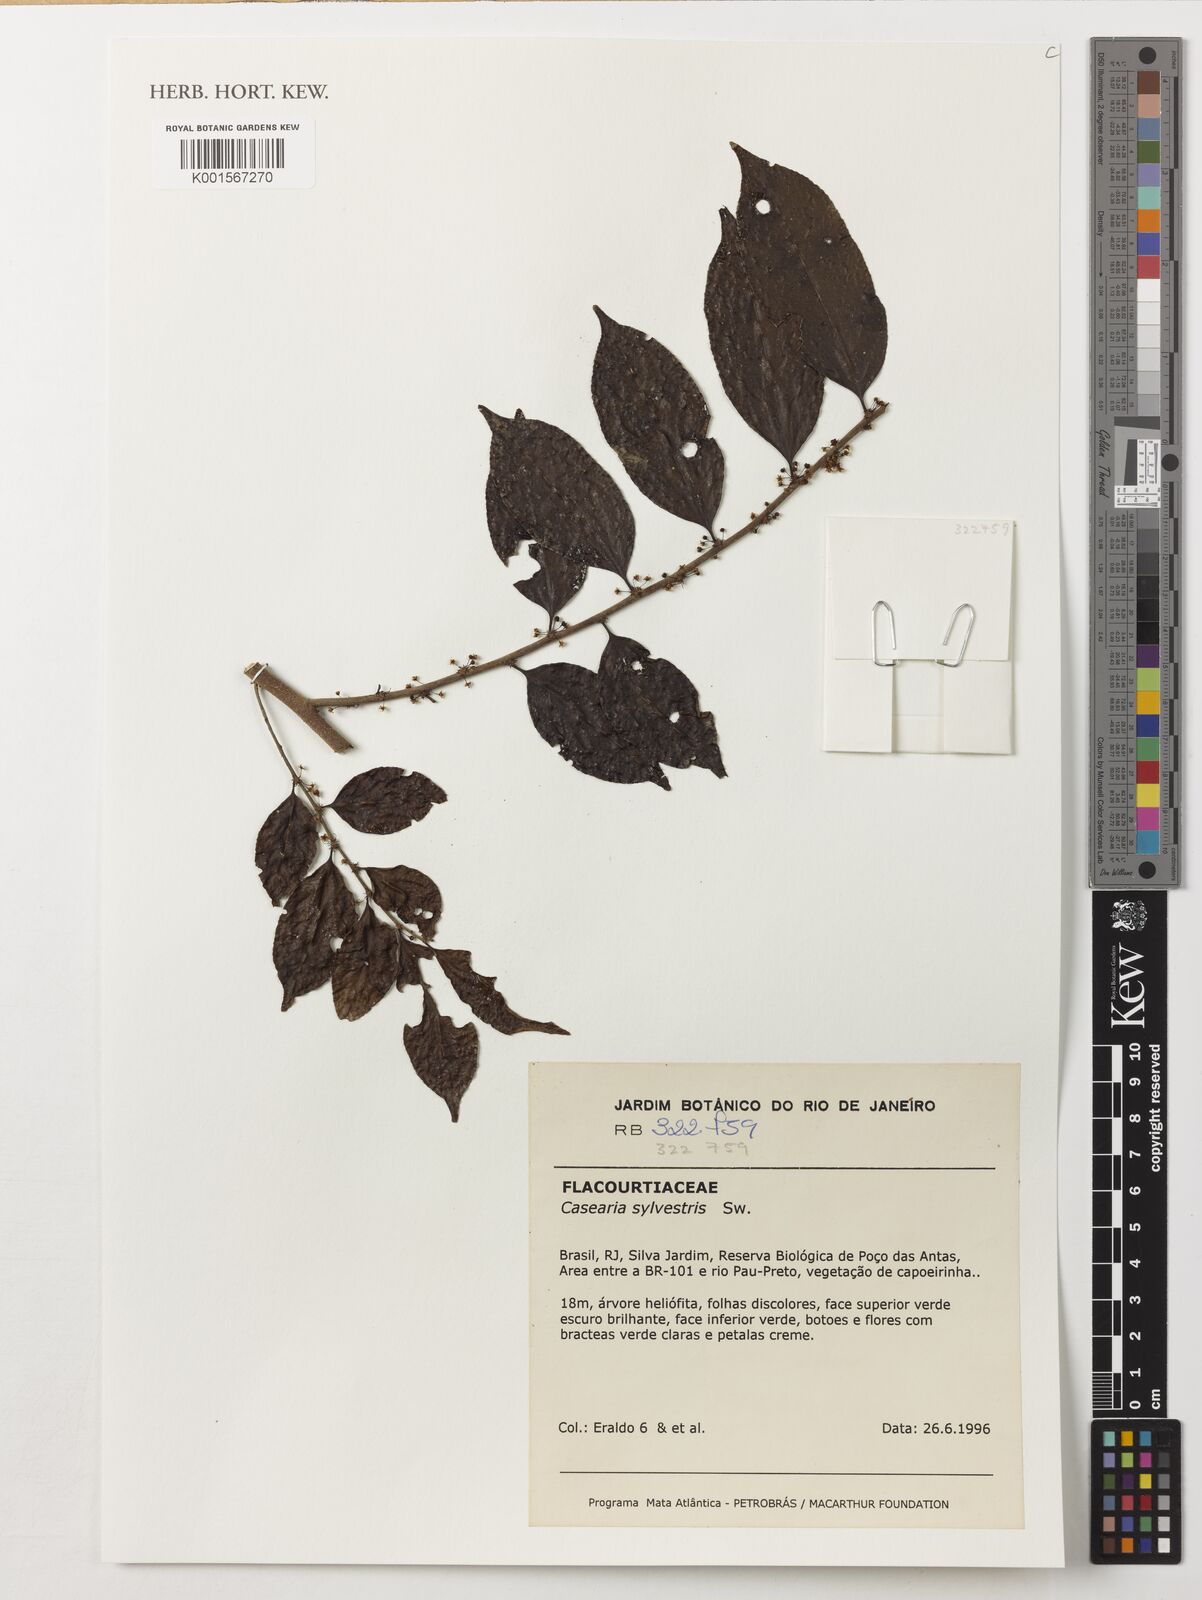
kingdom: Plantae
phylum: Tracheophyta
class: Magnoliopsida
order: Malpighiales
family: Salicaceae
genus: Casearia
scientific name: Casearia sylvestris
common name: Wild sage
